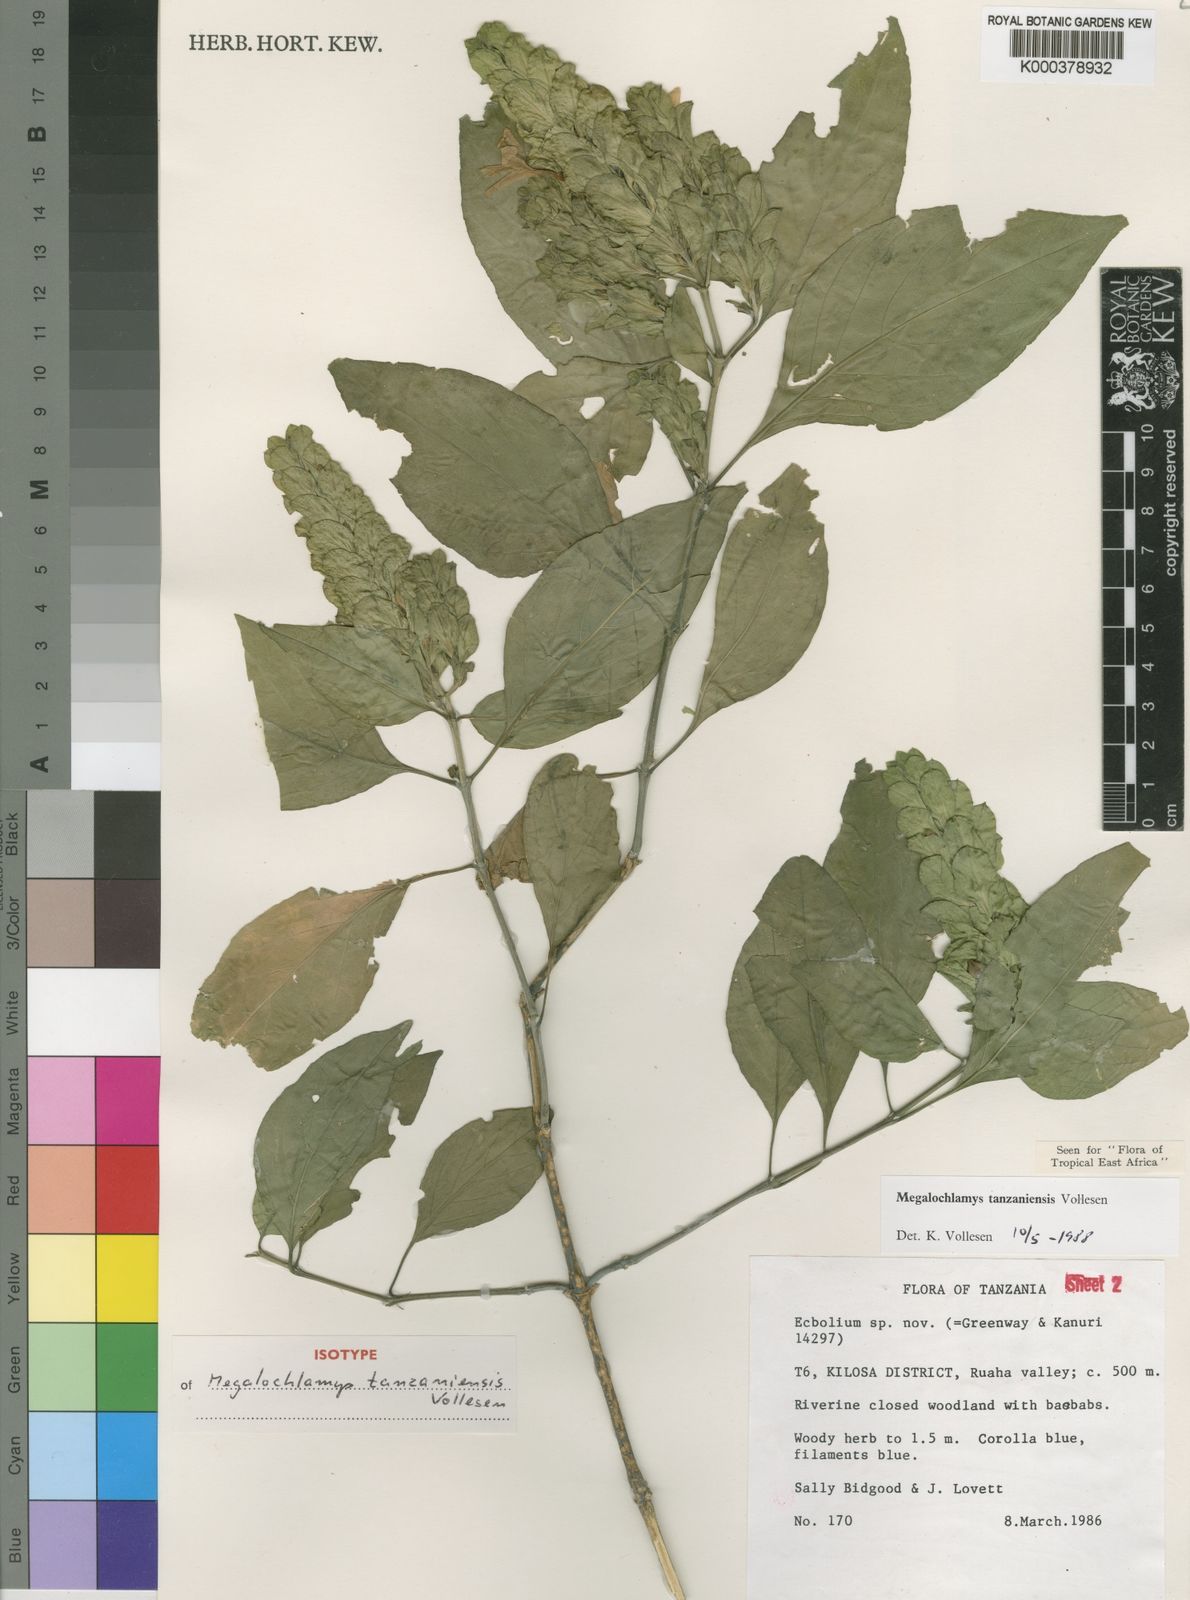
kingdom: Plantae
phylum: Tracheophyta
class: Magnoliopsida
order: Lamiales
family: Acanthaceae
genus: Megalochlamys
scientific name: Megalochlamys tanzaniensis
